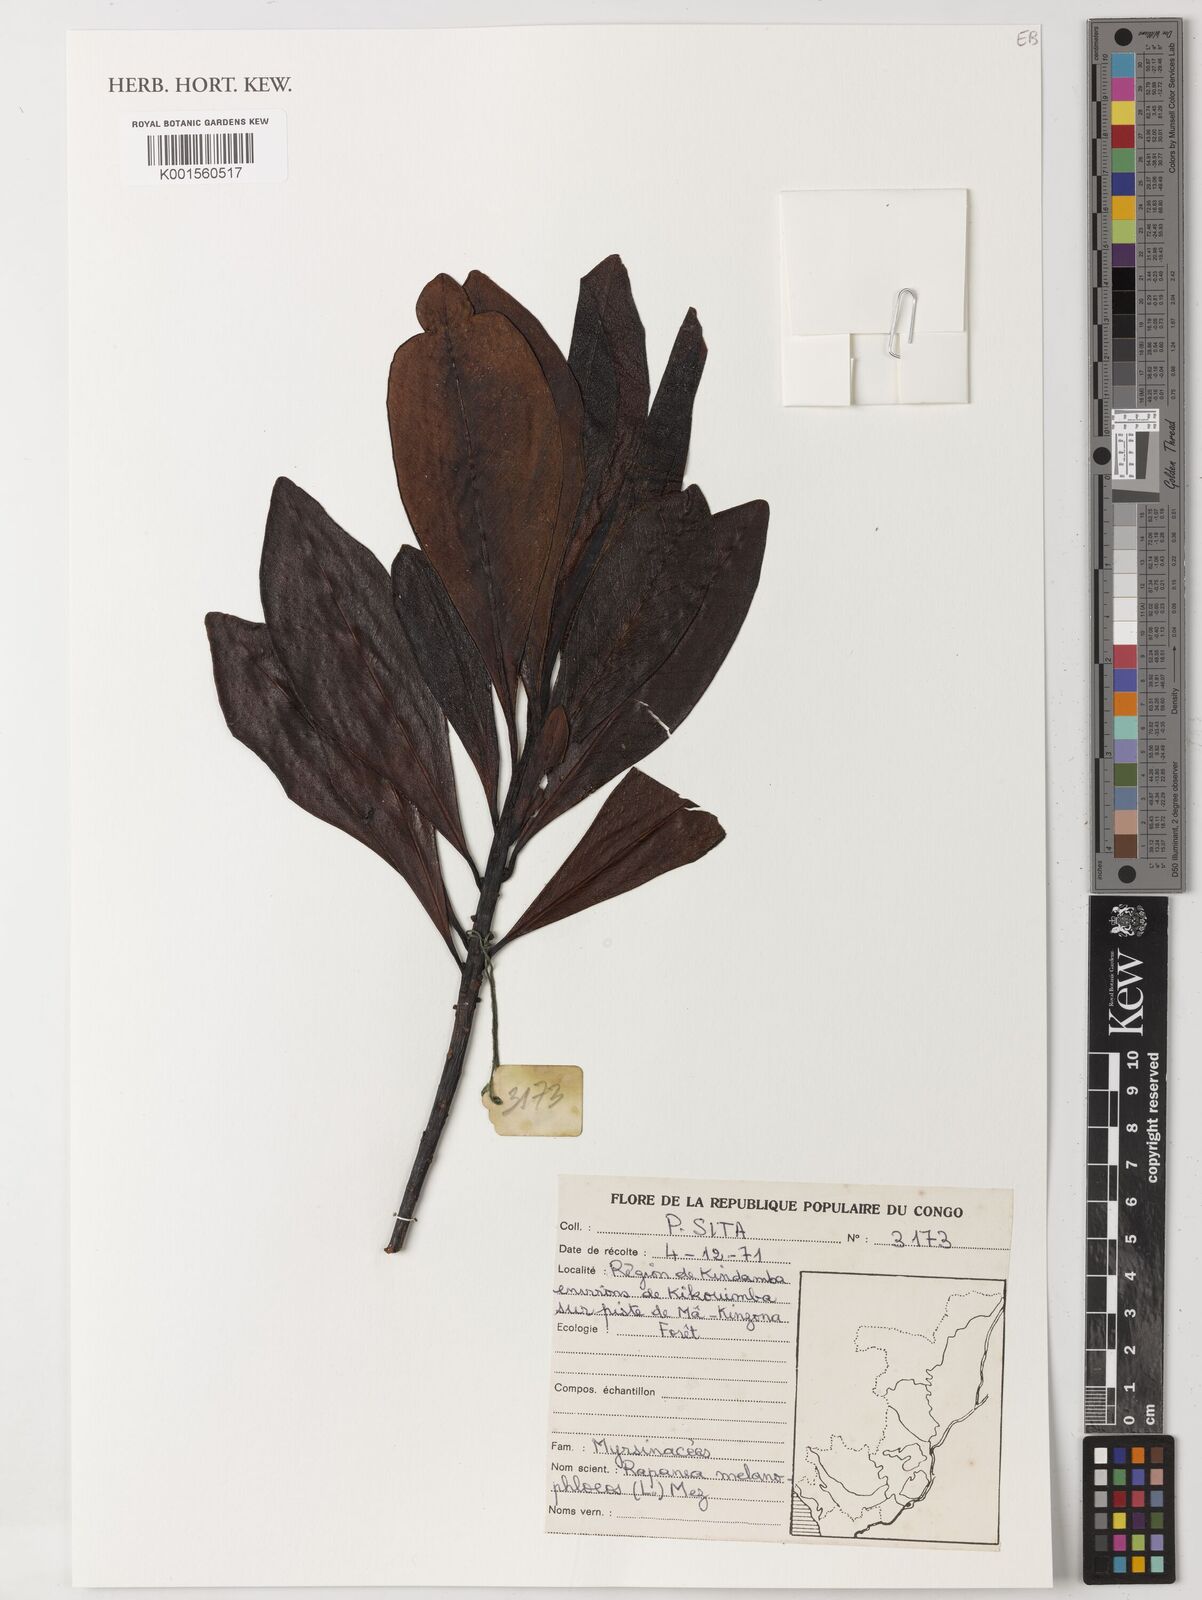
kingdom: Plantae
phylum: Tracheophyta
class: Magnoliopsida
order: Ericales
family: Primulaceae
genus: Myrsine
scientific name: Myrsine melanophloeos
